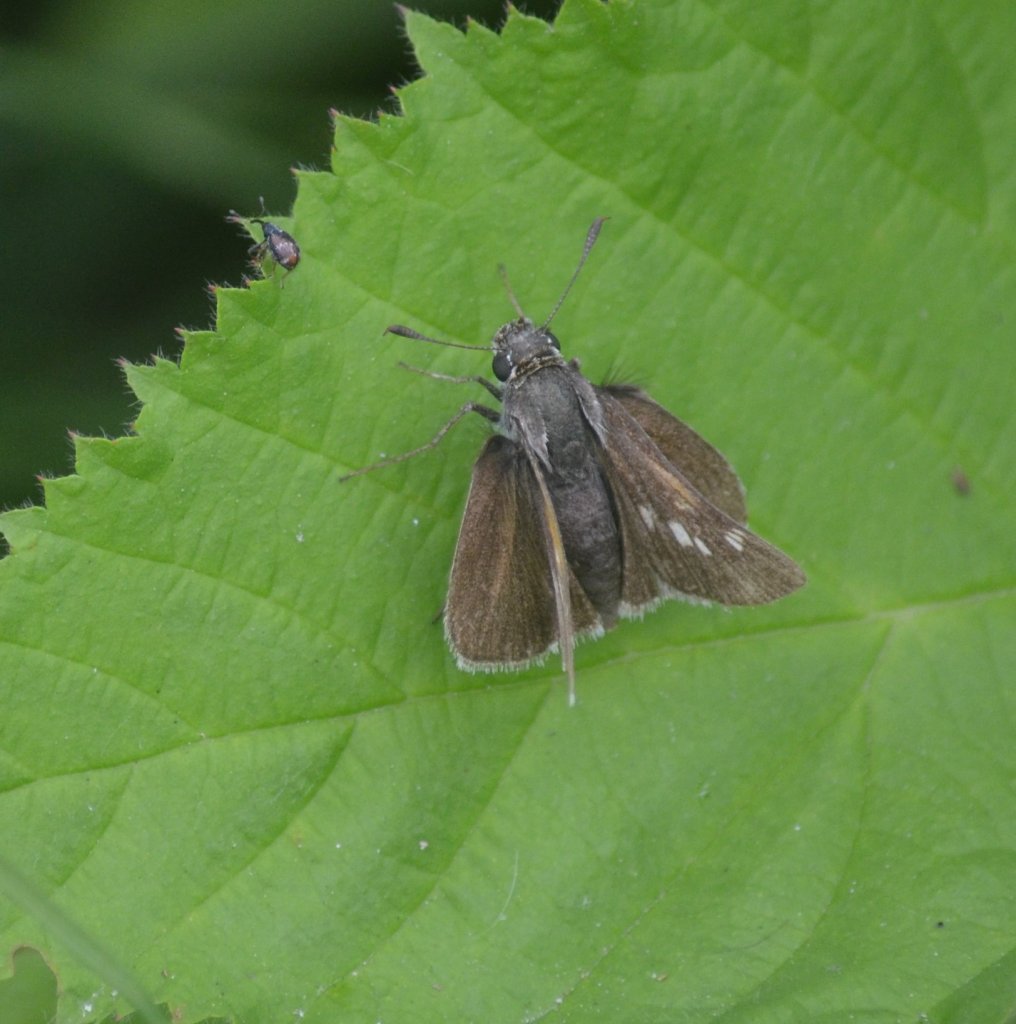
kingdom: Animalia
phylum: Arthropoda
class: Insecta
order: Lepidoptera
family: Hesperiidae
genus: Polites
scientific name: Polites themistocles
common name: Tawny-edged Skipper
